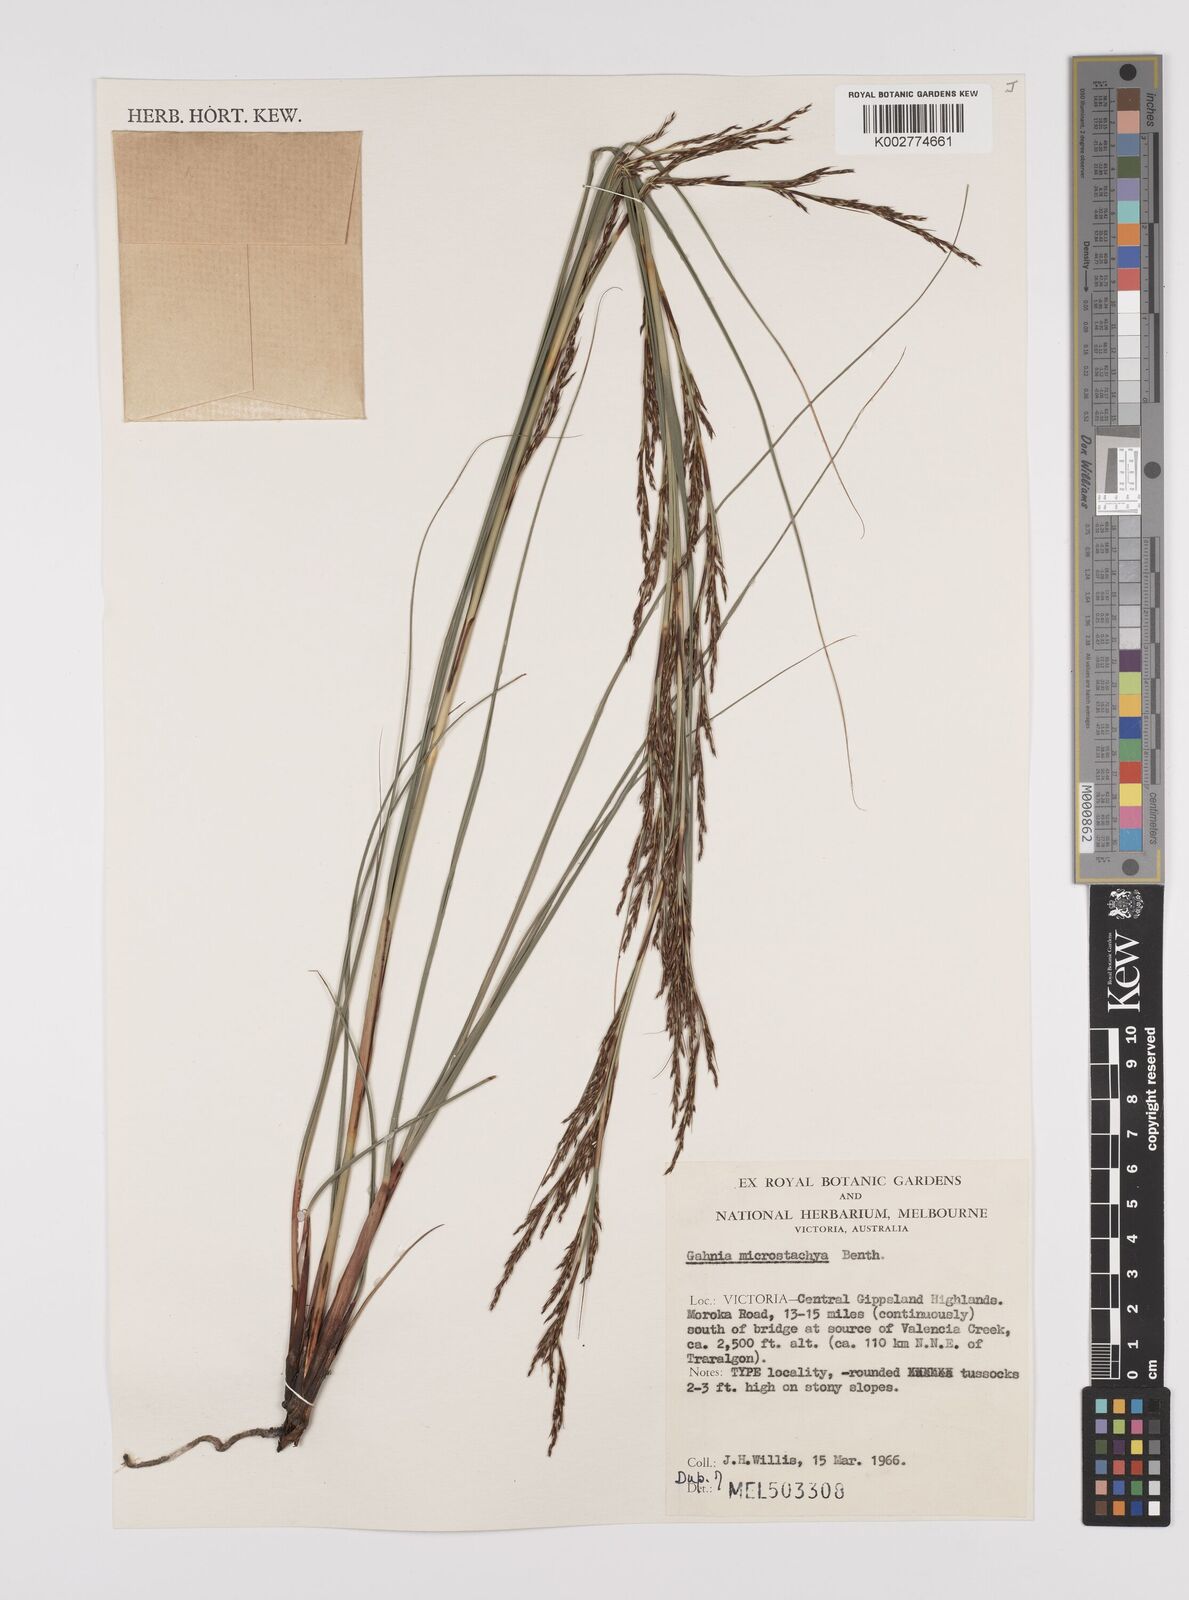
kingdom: Plantae
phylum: Tracheophyta
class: Liliopsida
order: Poales
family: Cyperaceae
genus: Gahnia
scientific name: Gahnia microstachya
